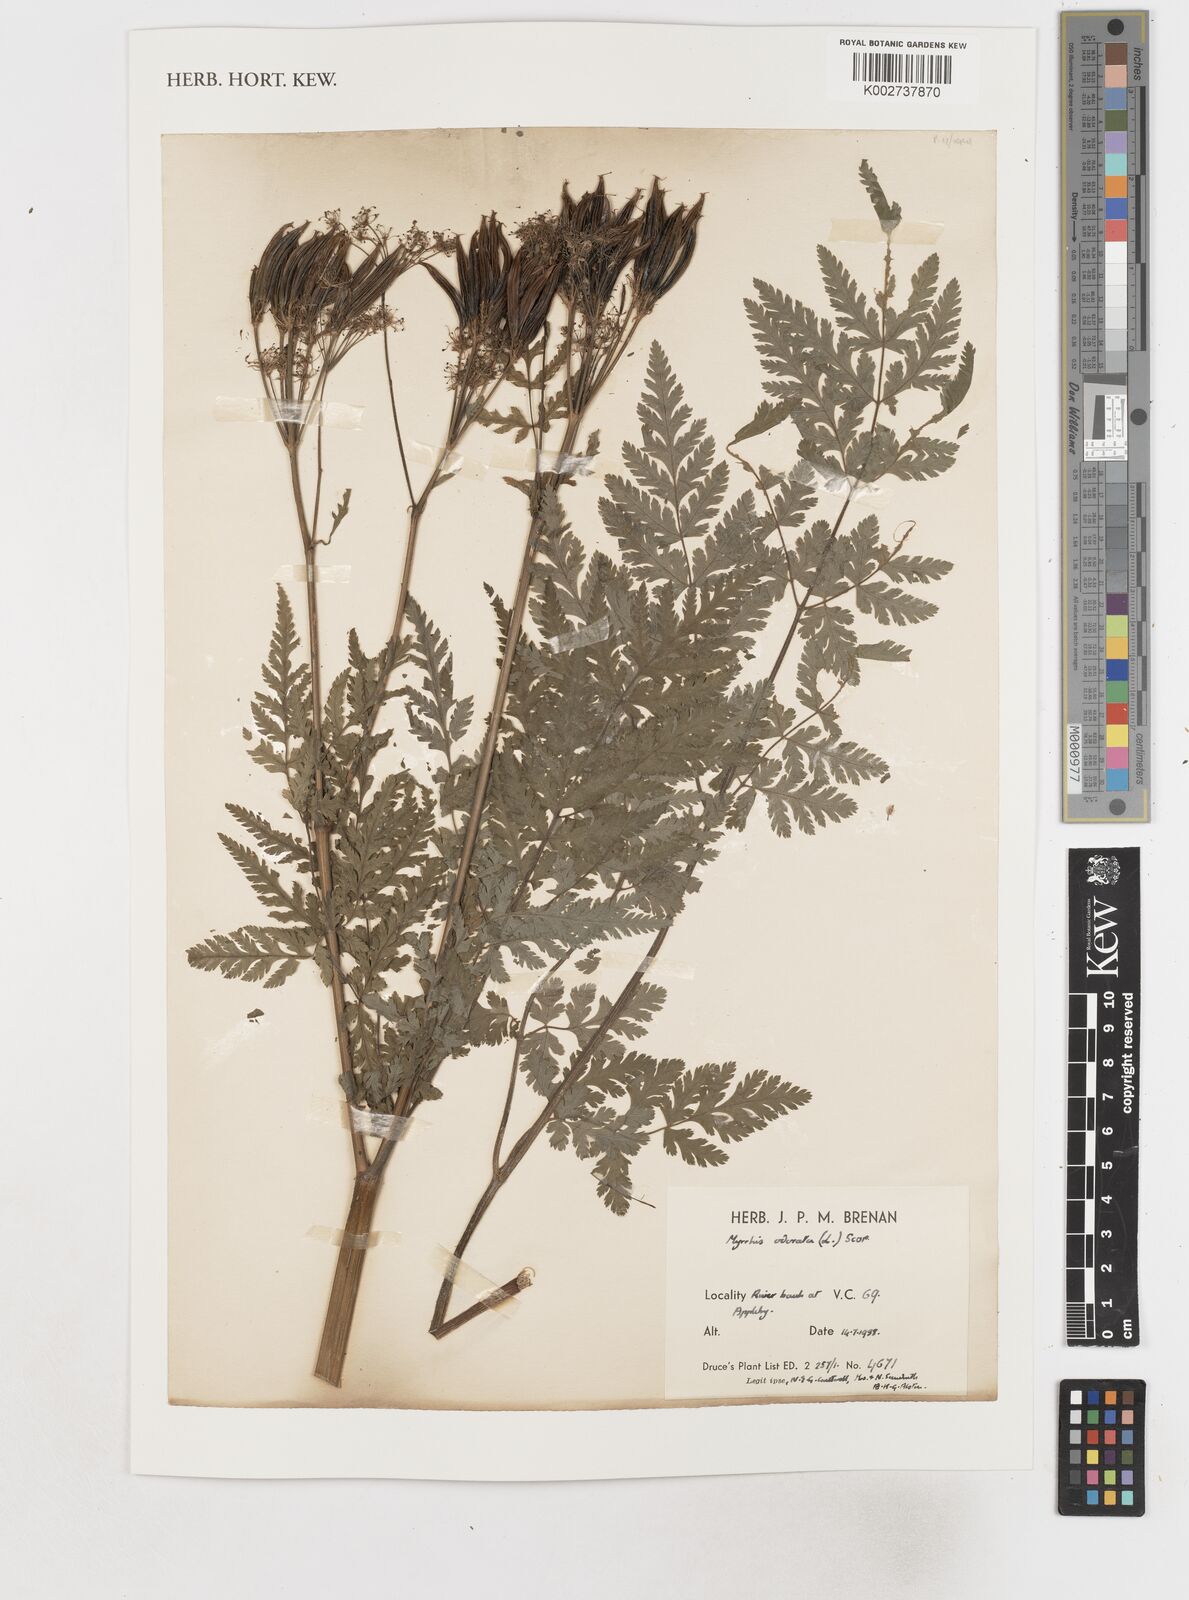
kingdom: Plantae
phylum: Tracheophyta
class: Magnoliopsida
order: Apiales
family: Apiaceae
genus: Myrrhis
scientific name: Myrrhis odorata
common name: Sweet cicely
